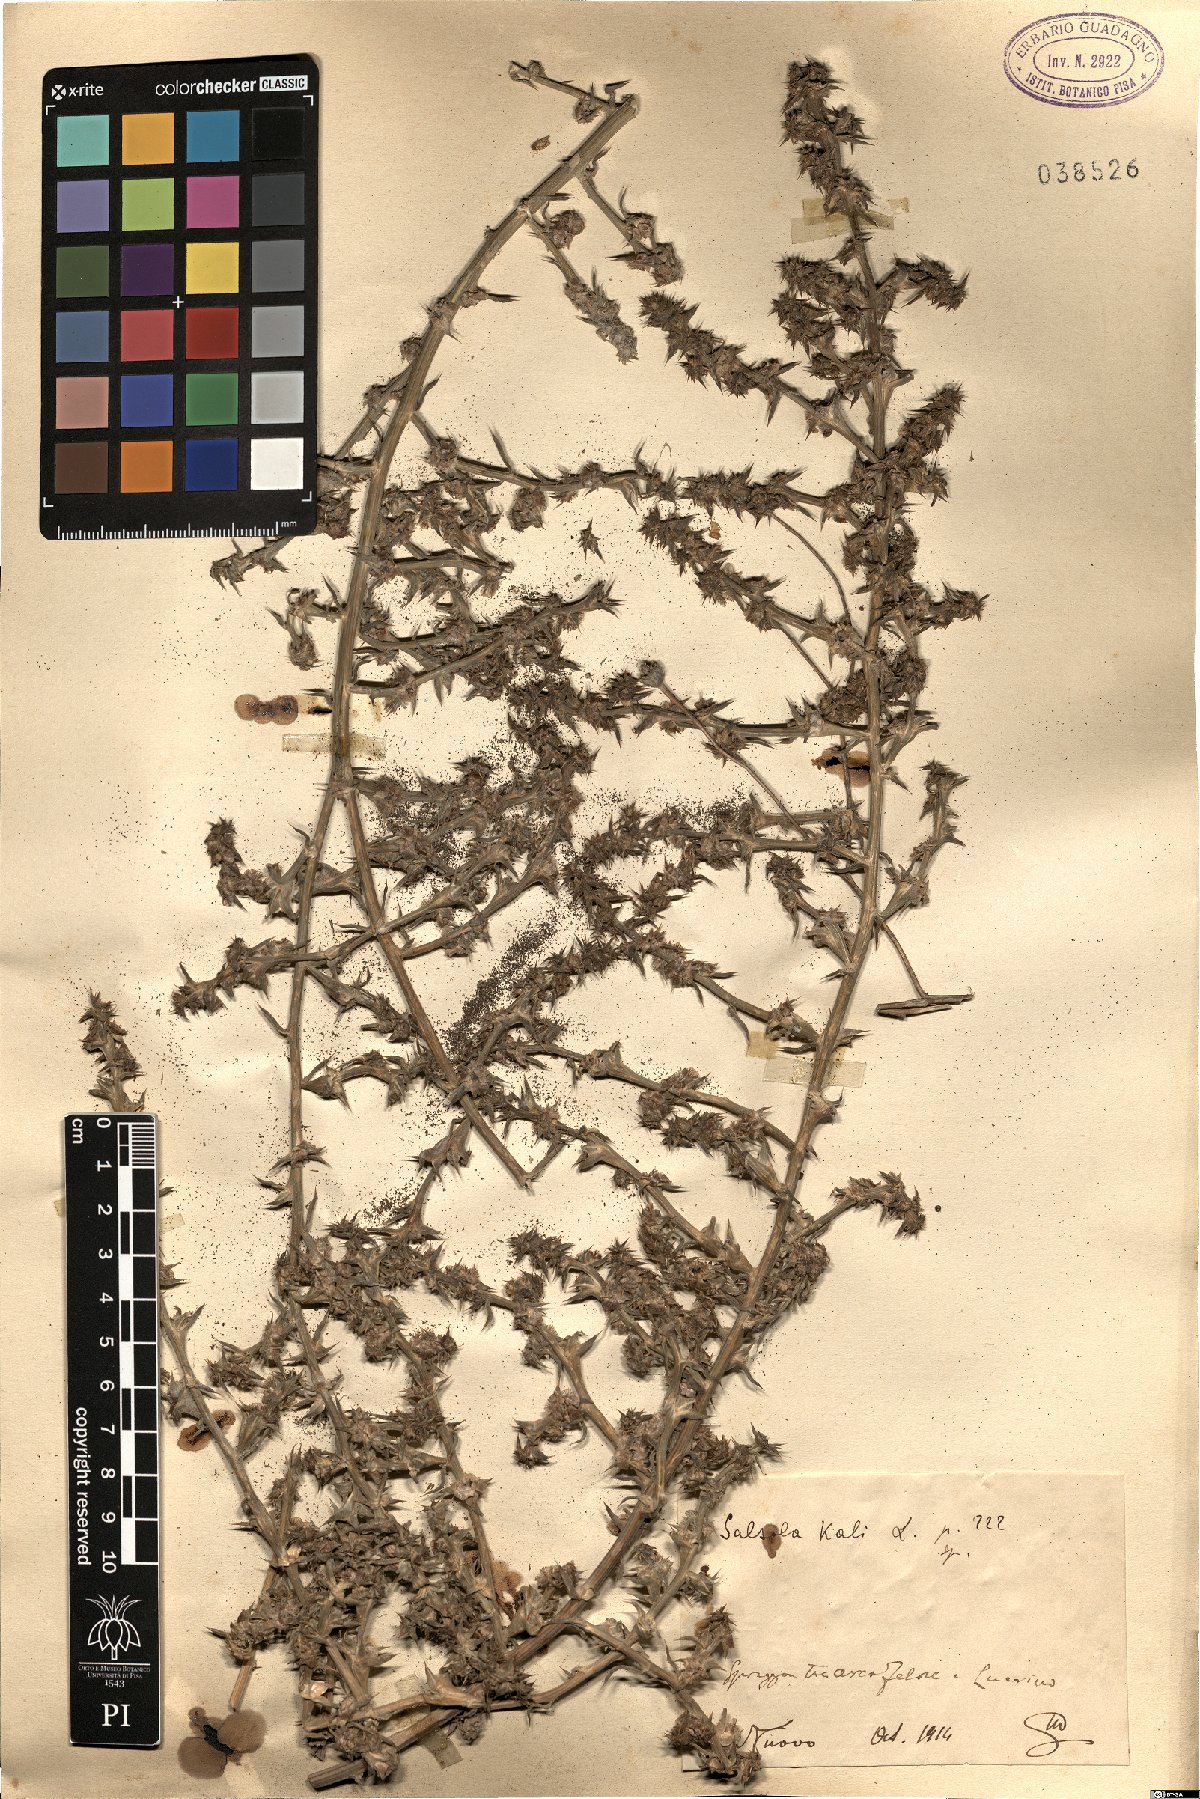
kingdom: Plantae
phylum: Tracheophyta
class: Magnoliopsida
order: Caryophyllales
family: Amaranthaceae
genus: Salsola
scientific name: Salsola kali
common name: Saltwort
